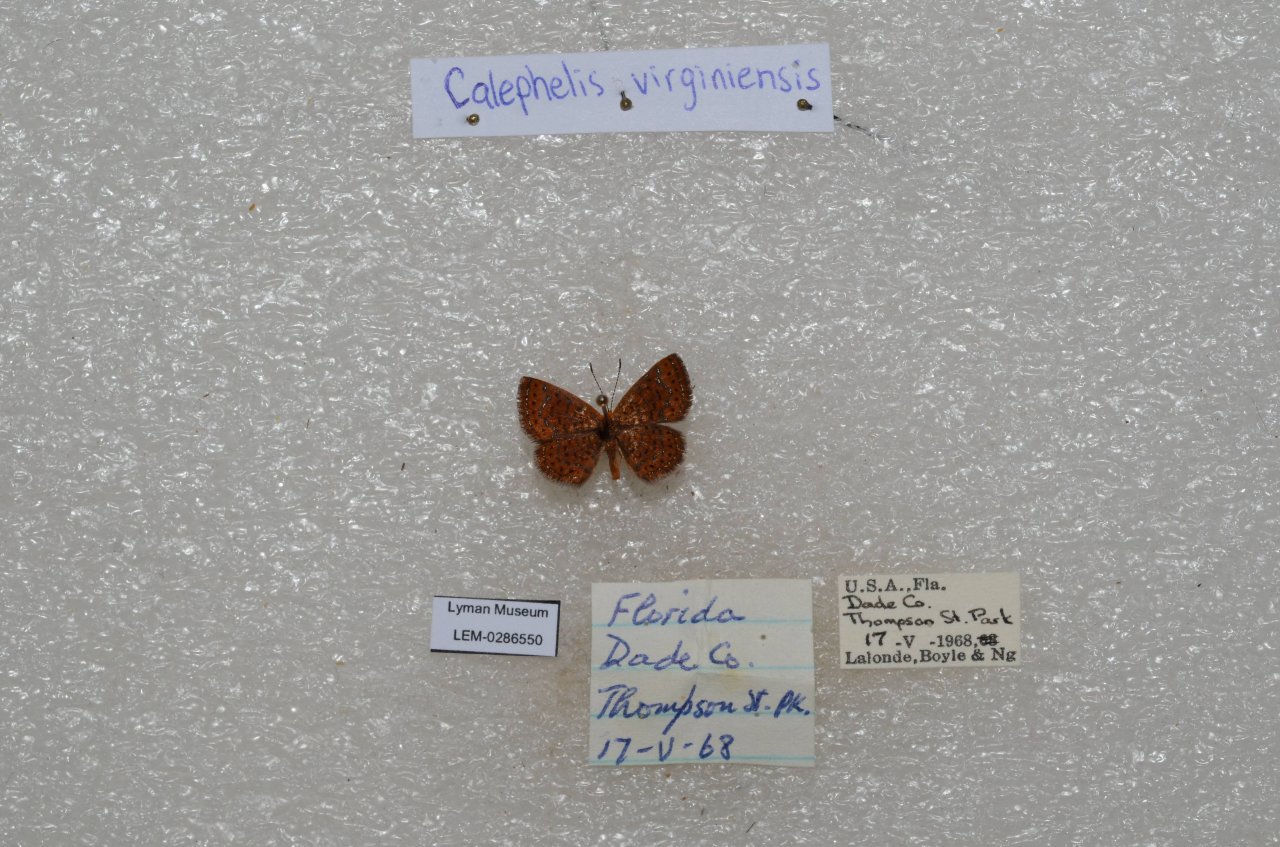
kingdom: Animalia
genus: Calephelis
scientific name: Calephelis virginiensis
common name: Little Metalmark
